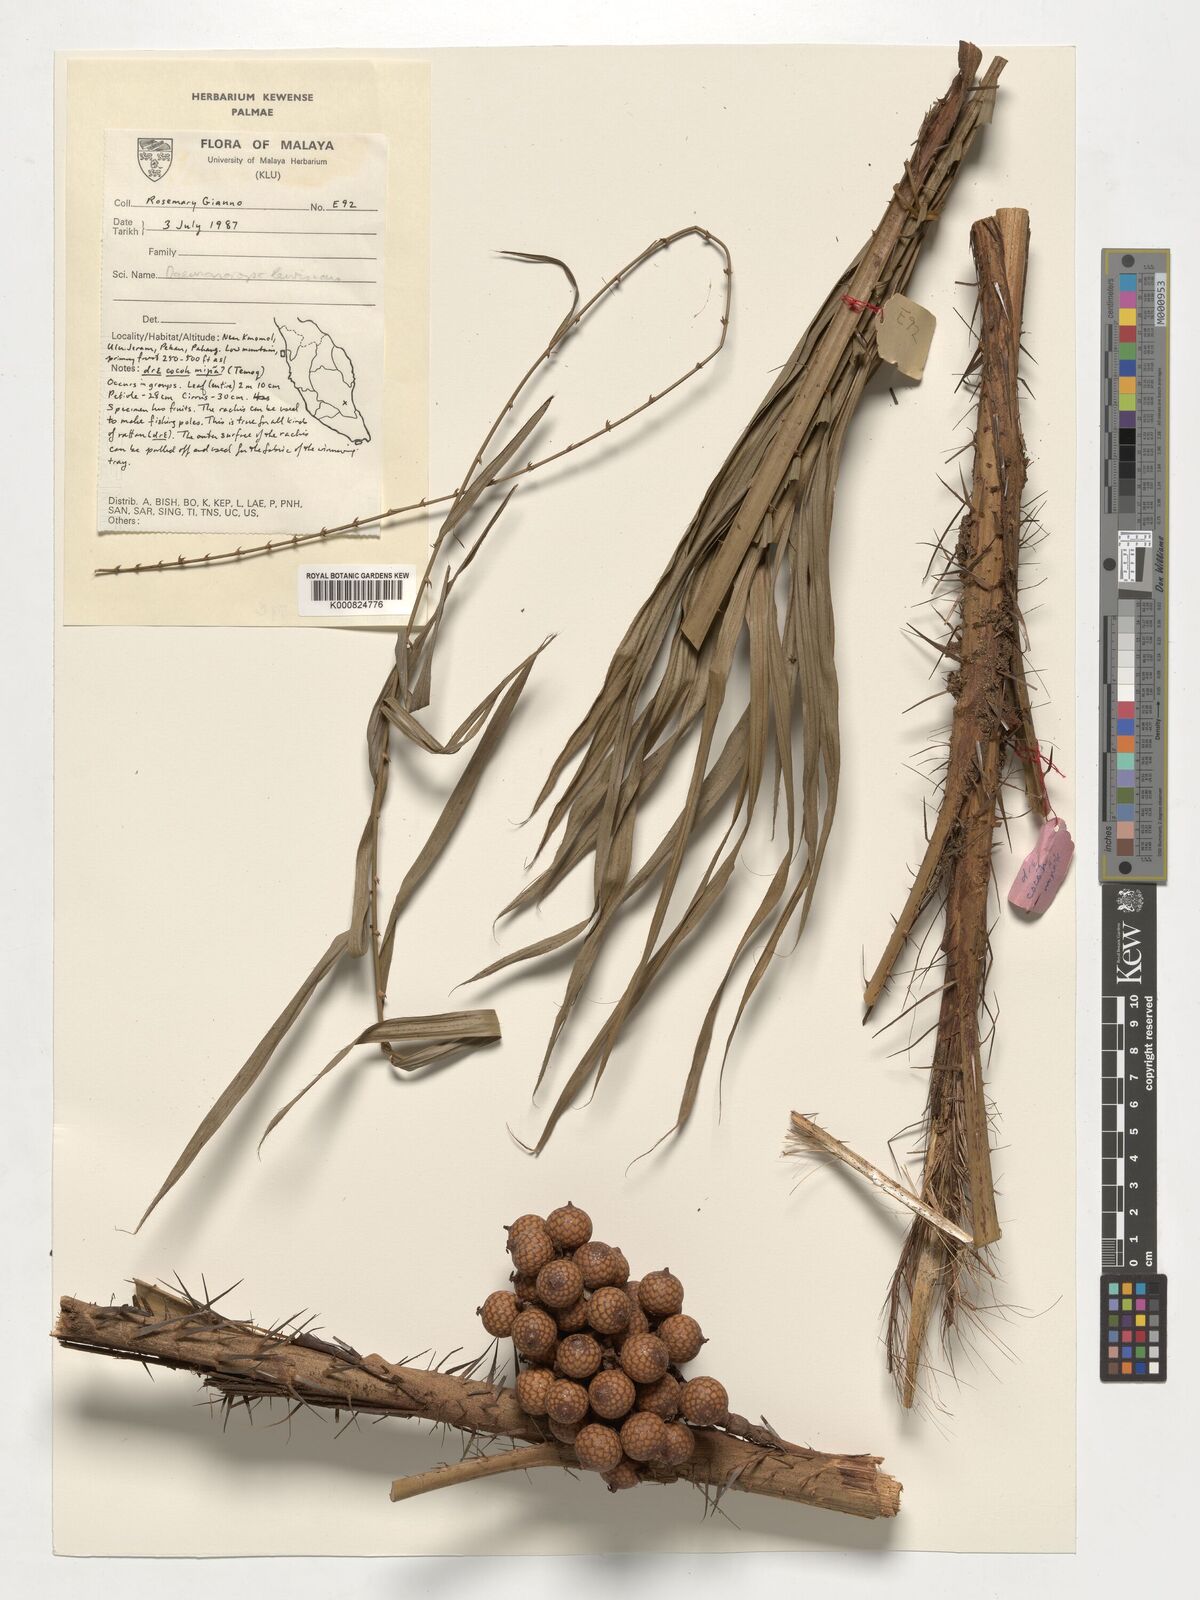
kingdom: Plantae
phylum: Tracheophyta
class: Liliopsida
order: Arecales
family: Arecaceae
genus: Calamus
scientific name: Calamus melanochaetes
